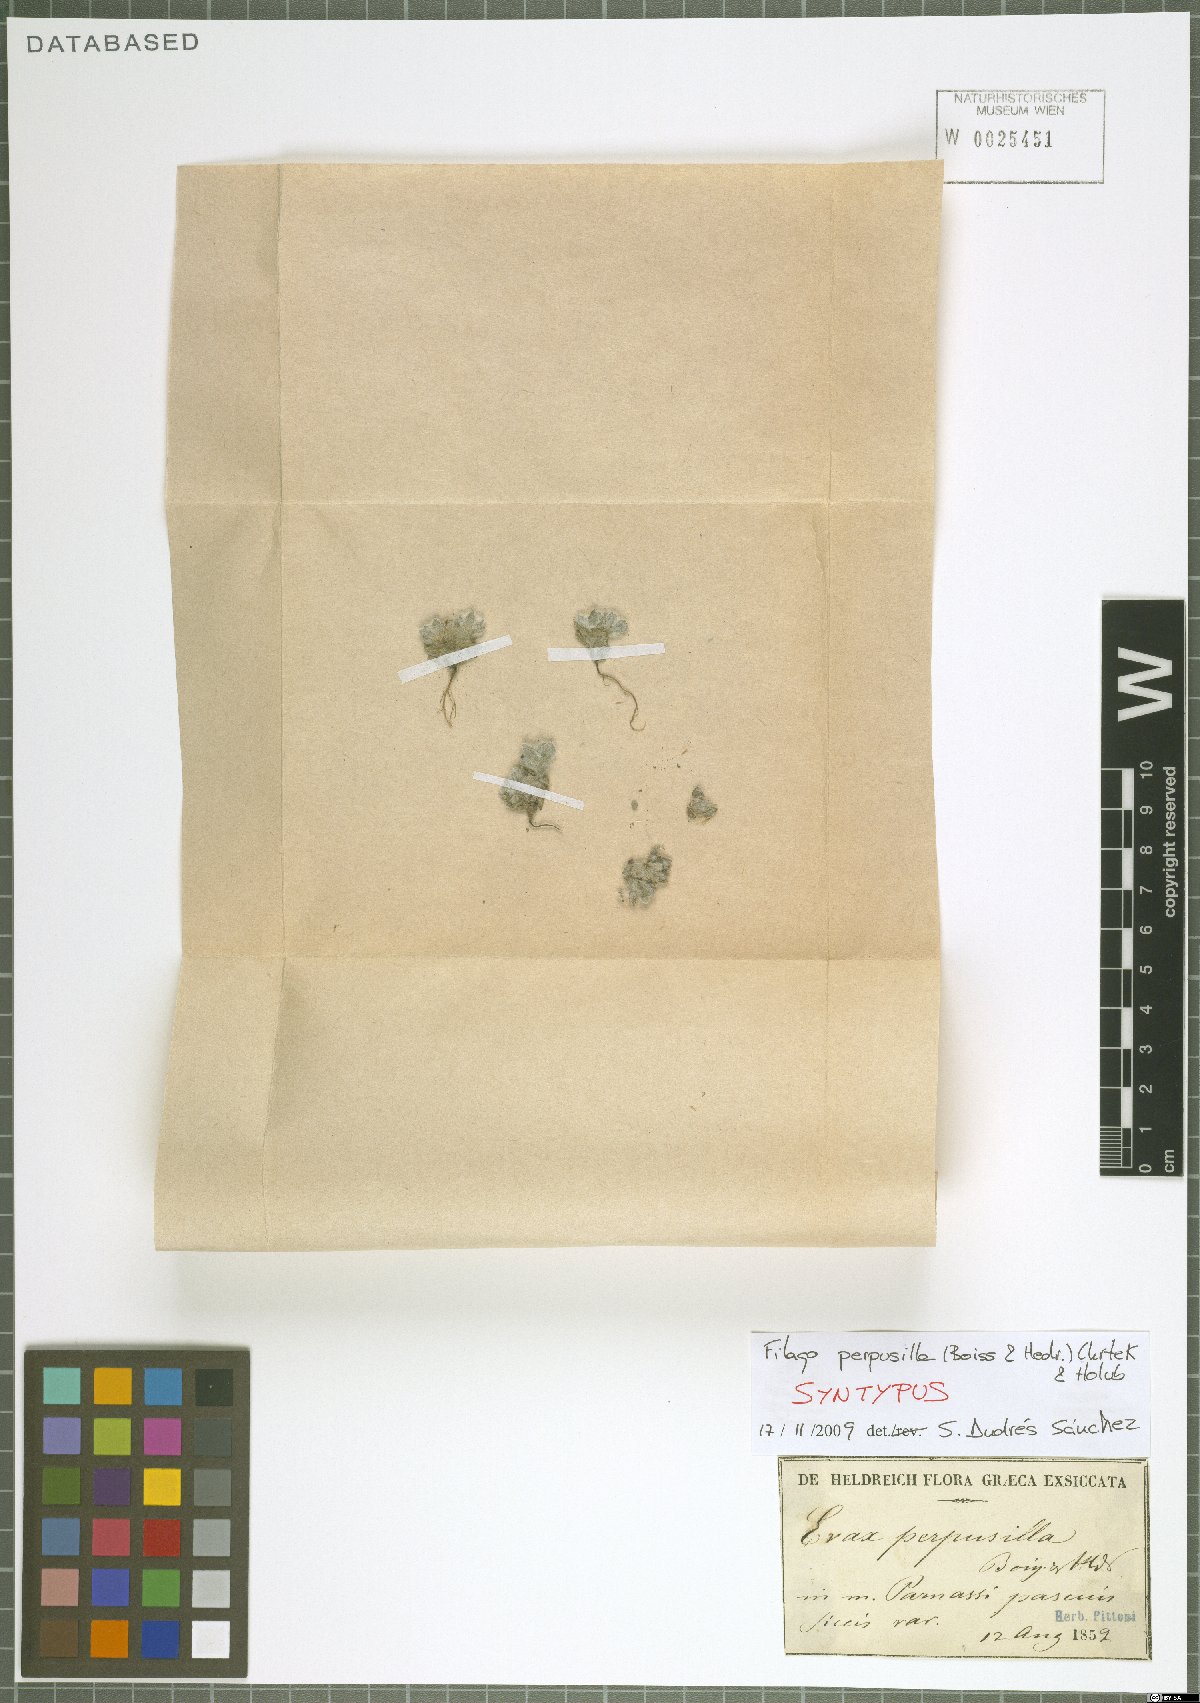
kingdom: Plantae
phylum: Tracheophyta
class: Magnoliopsida
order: Asterales
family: Asteraceae
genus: Filago
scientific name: Filago perpusilla
